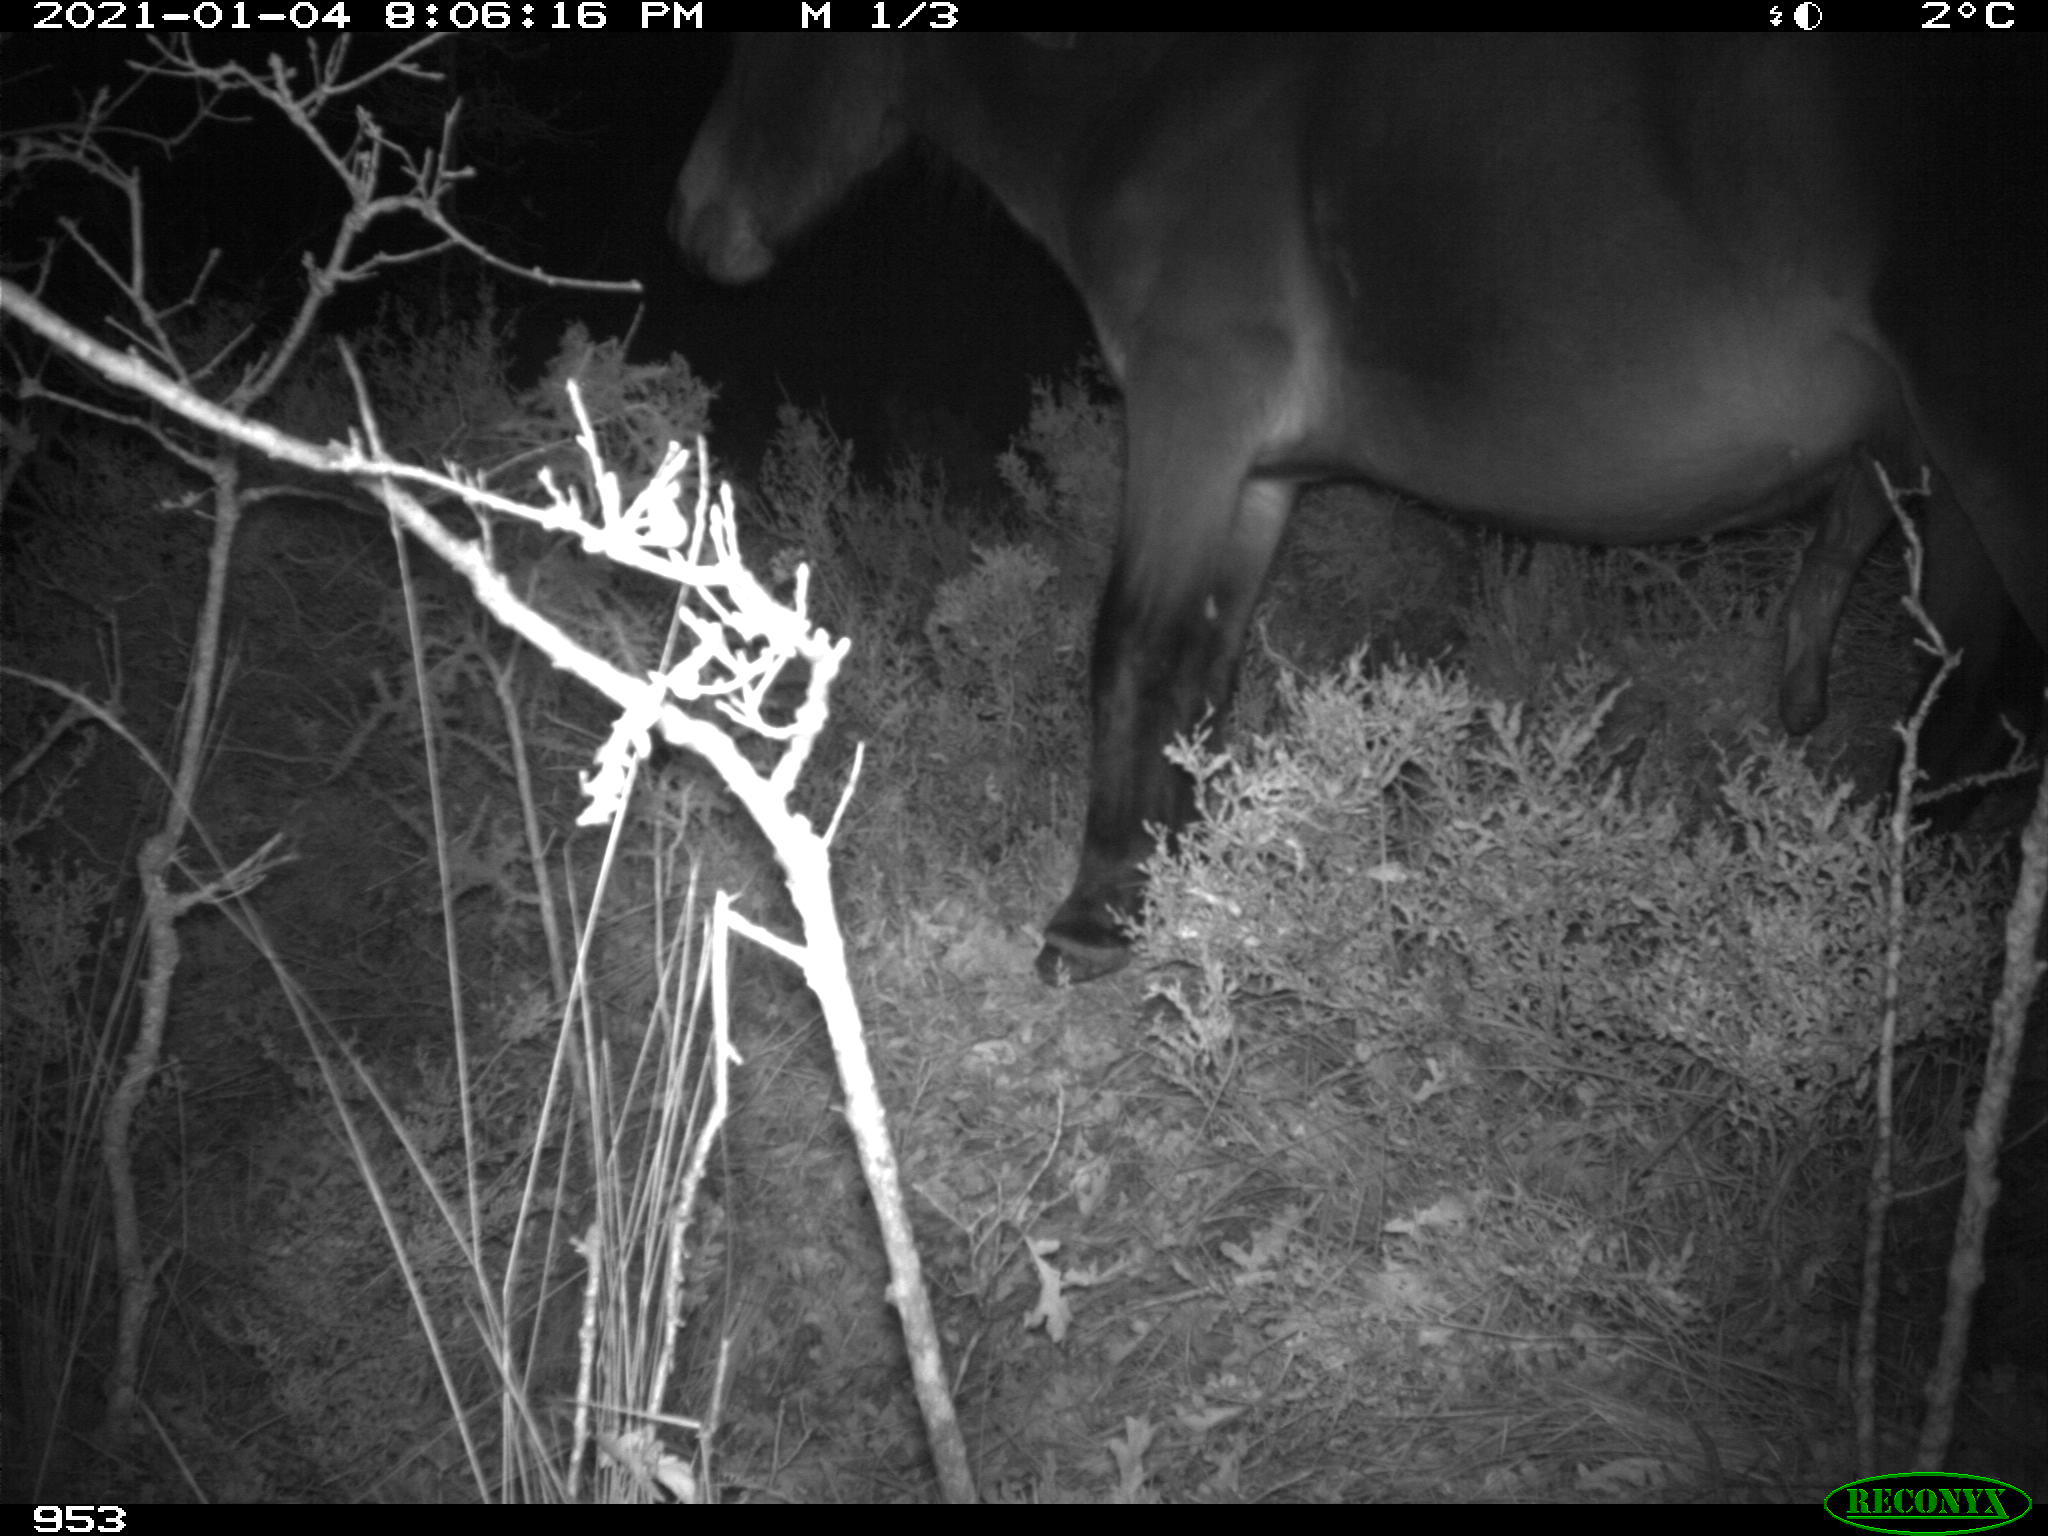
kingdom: Animalia
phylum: Chordata
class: Mammalia
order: Perissodactyla
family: Equidae
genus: Equus
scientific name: Equus caballus
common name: Horse
